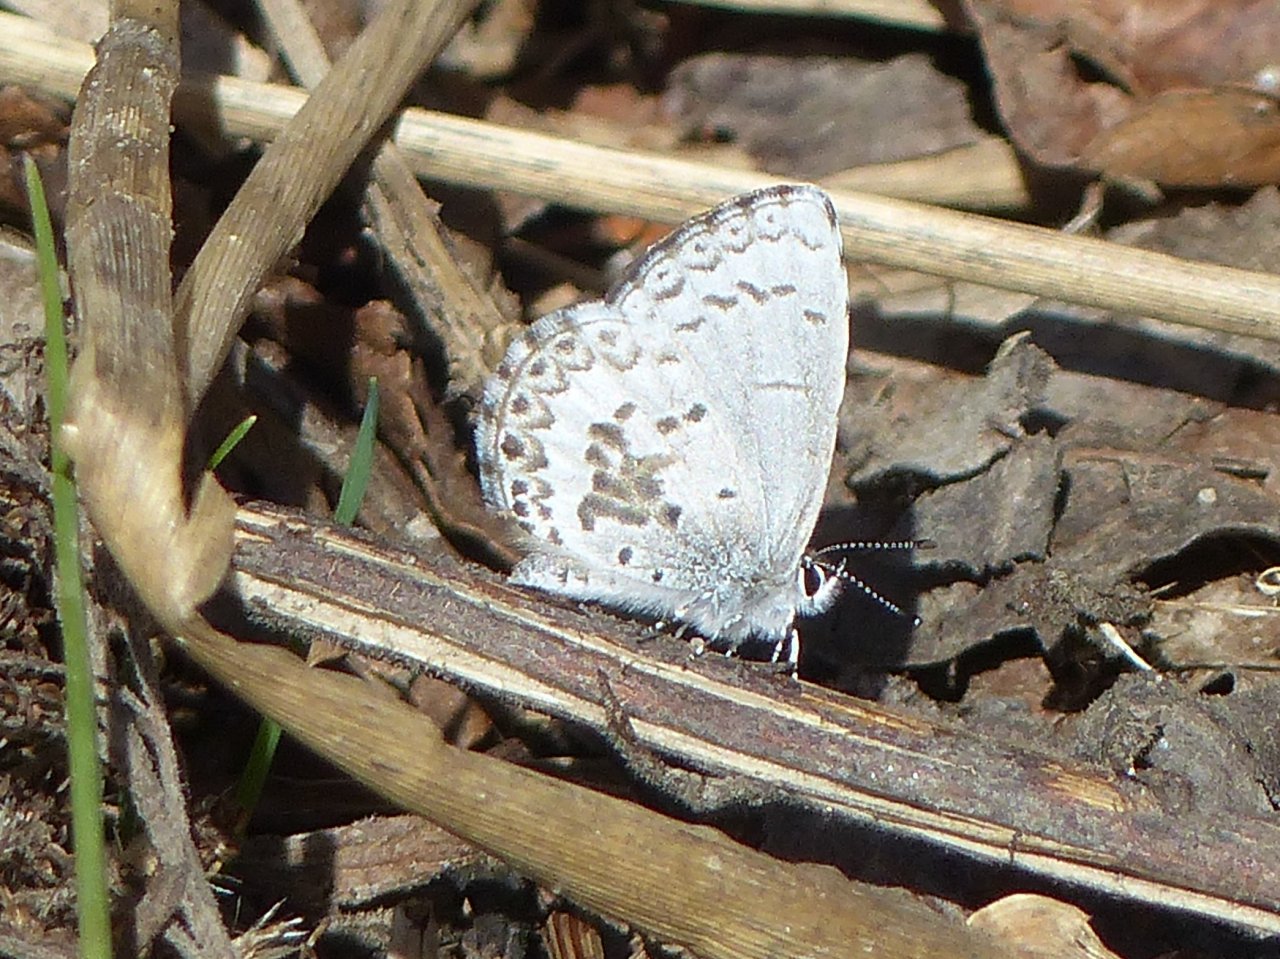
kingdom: Animalia
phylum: Arthropoda
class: Insecta
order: Lepidoptera
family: Lycaenidae
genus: Celastrina
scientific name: Celastrina lucia
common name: Northern Spring Azure
